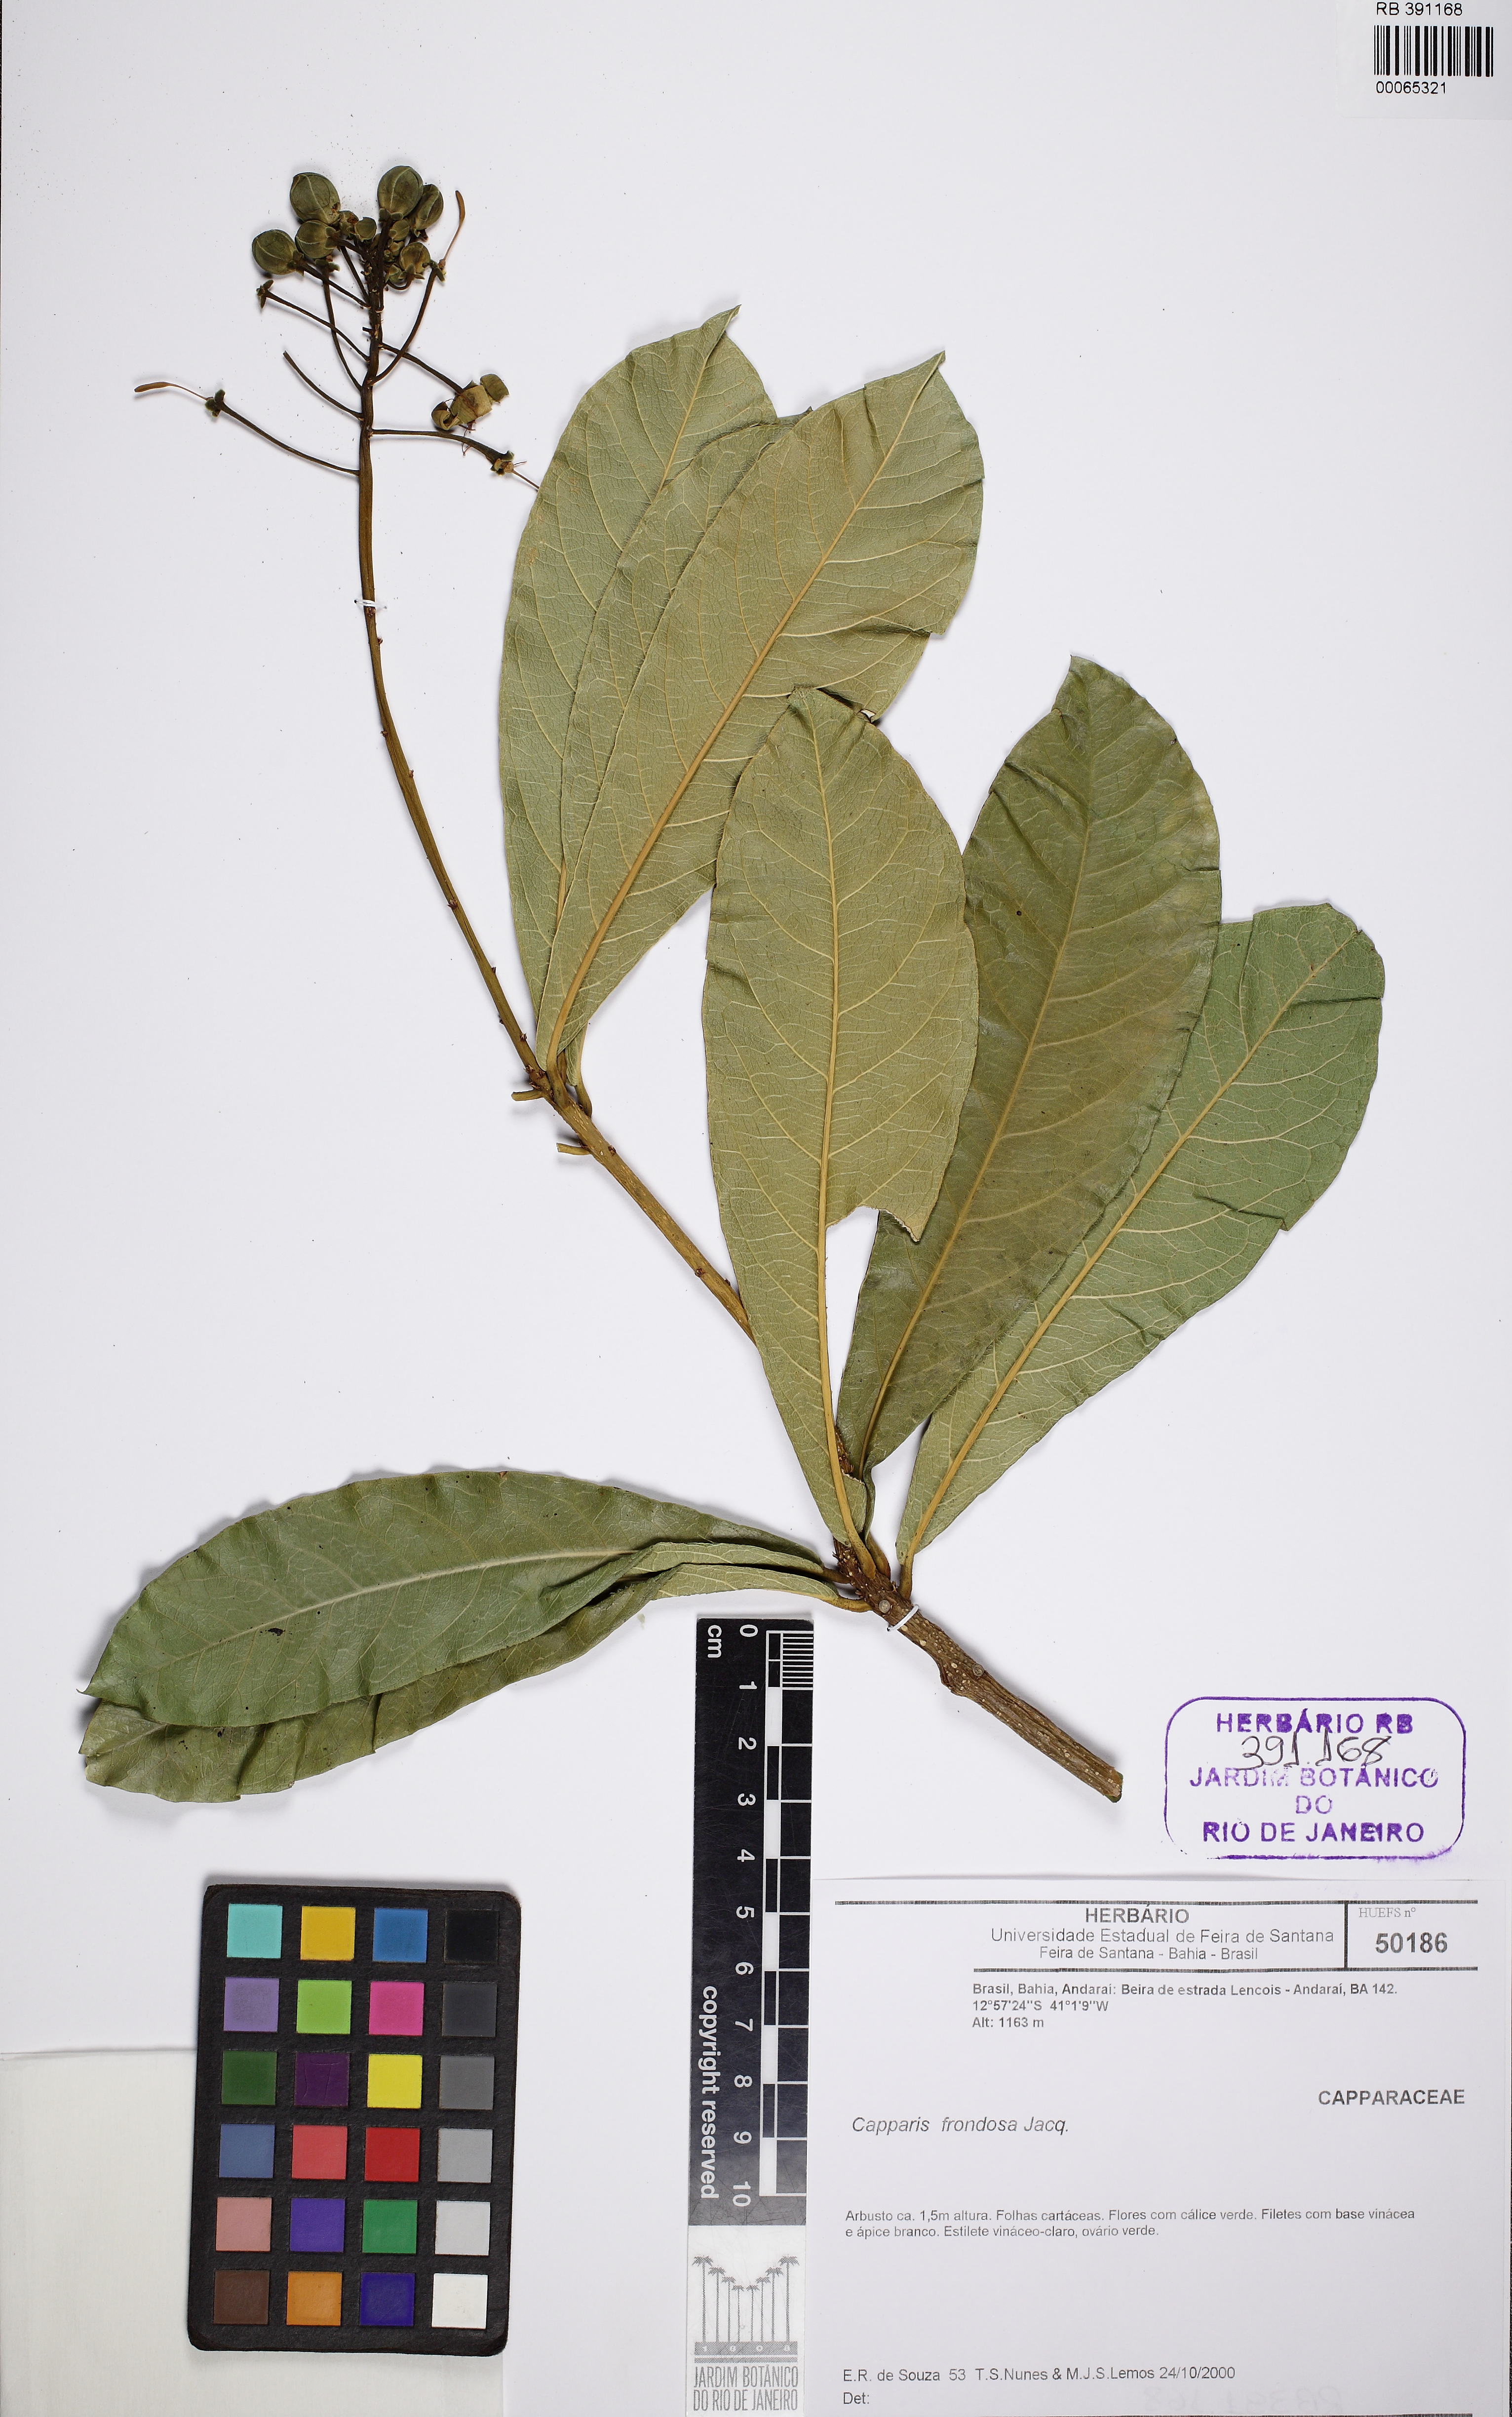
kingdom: Plantae
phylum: Tracheophyta
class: Magnoliopsida
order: Brassicales
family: Capparaceae
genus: Capparidastrum
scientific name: Capparidastrum frondosum
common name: Church blossom
